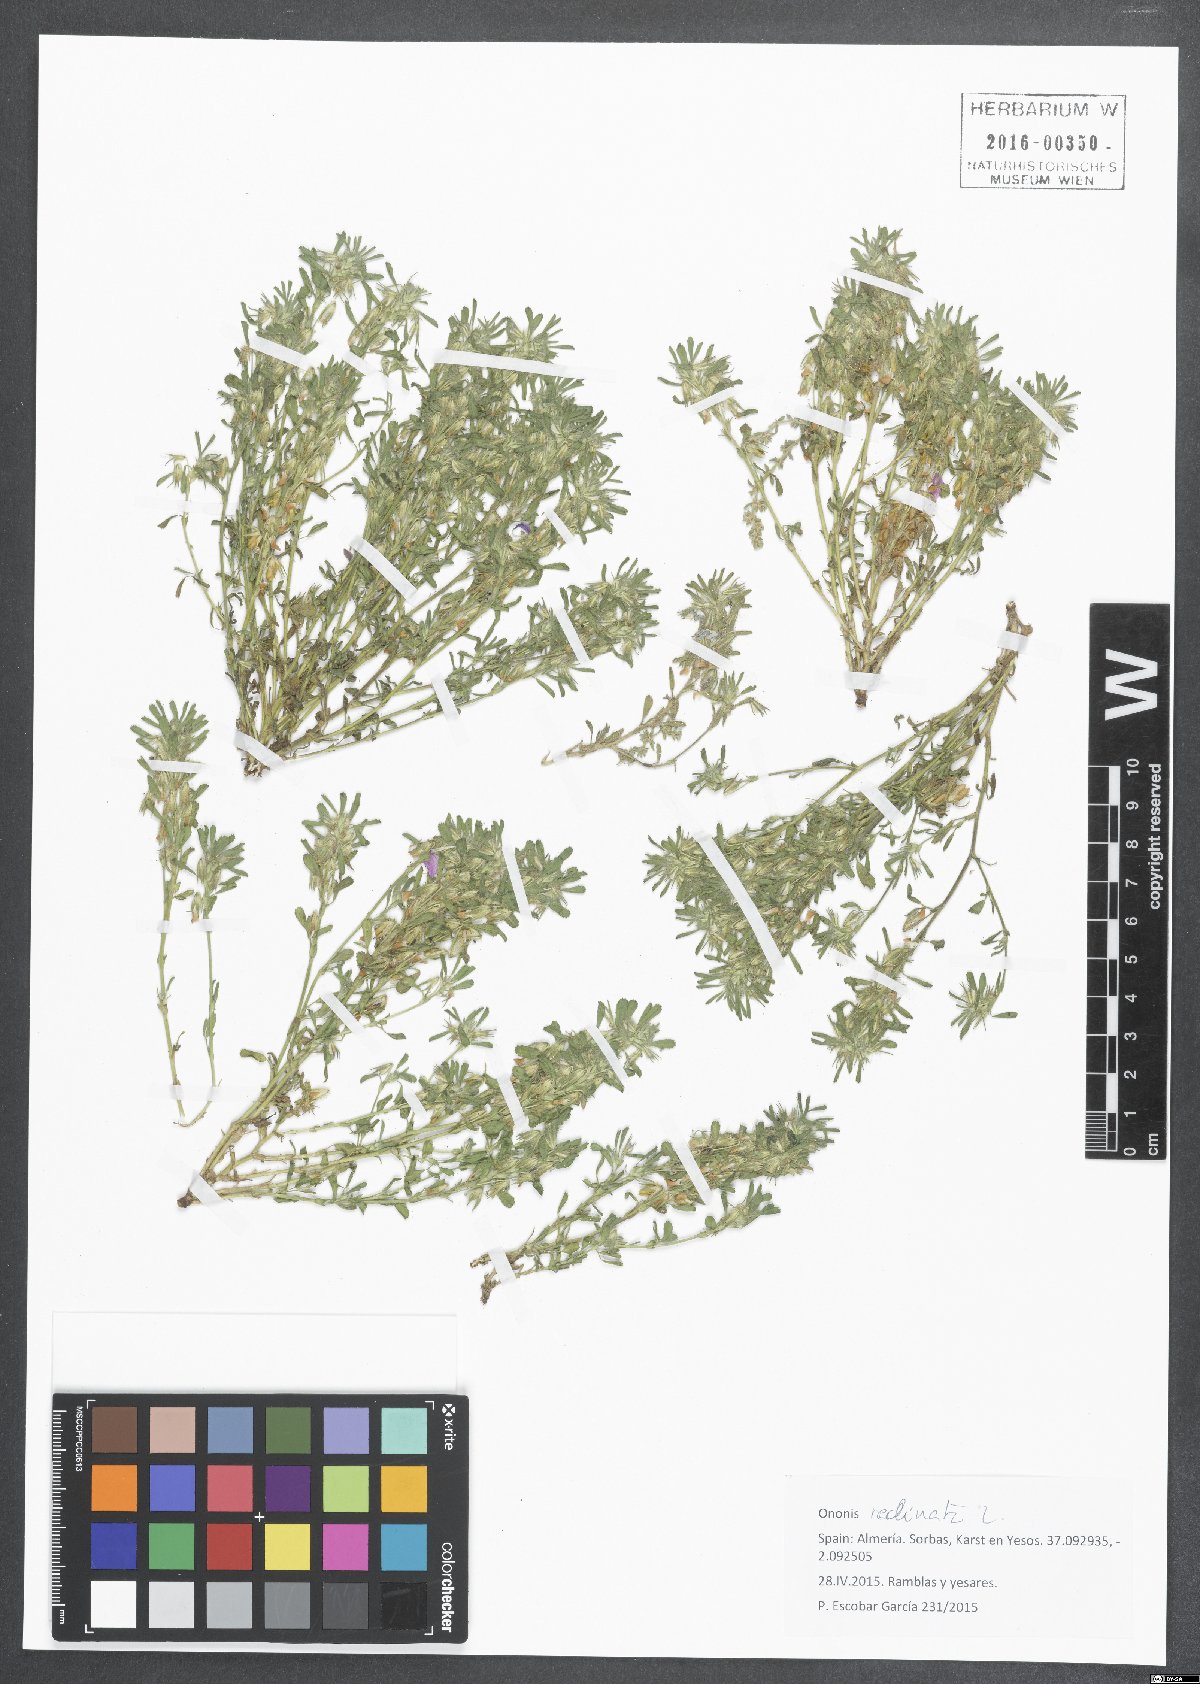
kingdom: Plantae
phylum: Tracheophyta
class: Magnoliopsida
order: Fabales
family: Fabaceae
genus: Ononis
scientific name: Ononis reclinata
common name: Small restharrow
